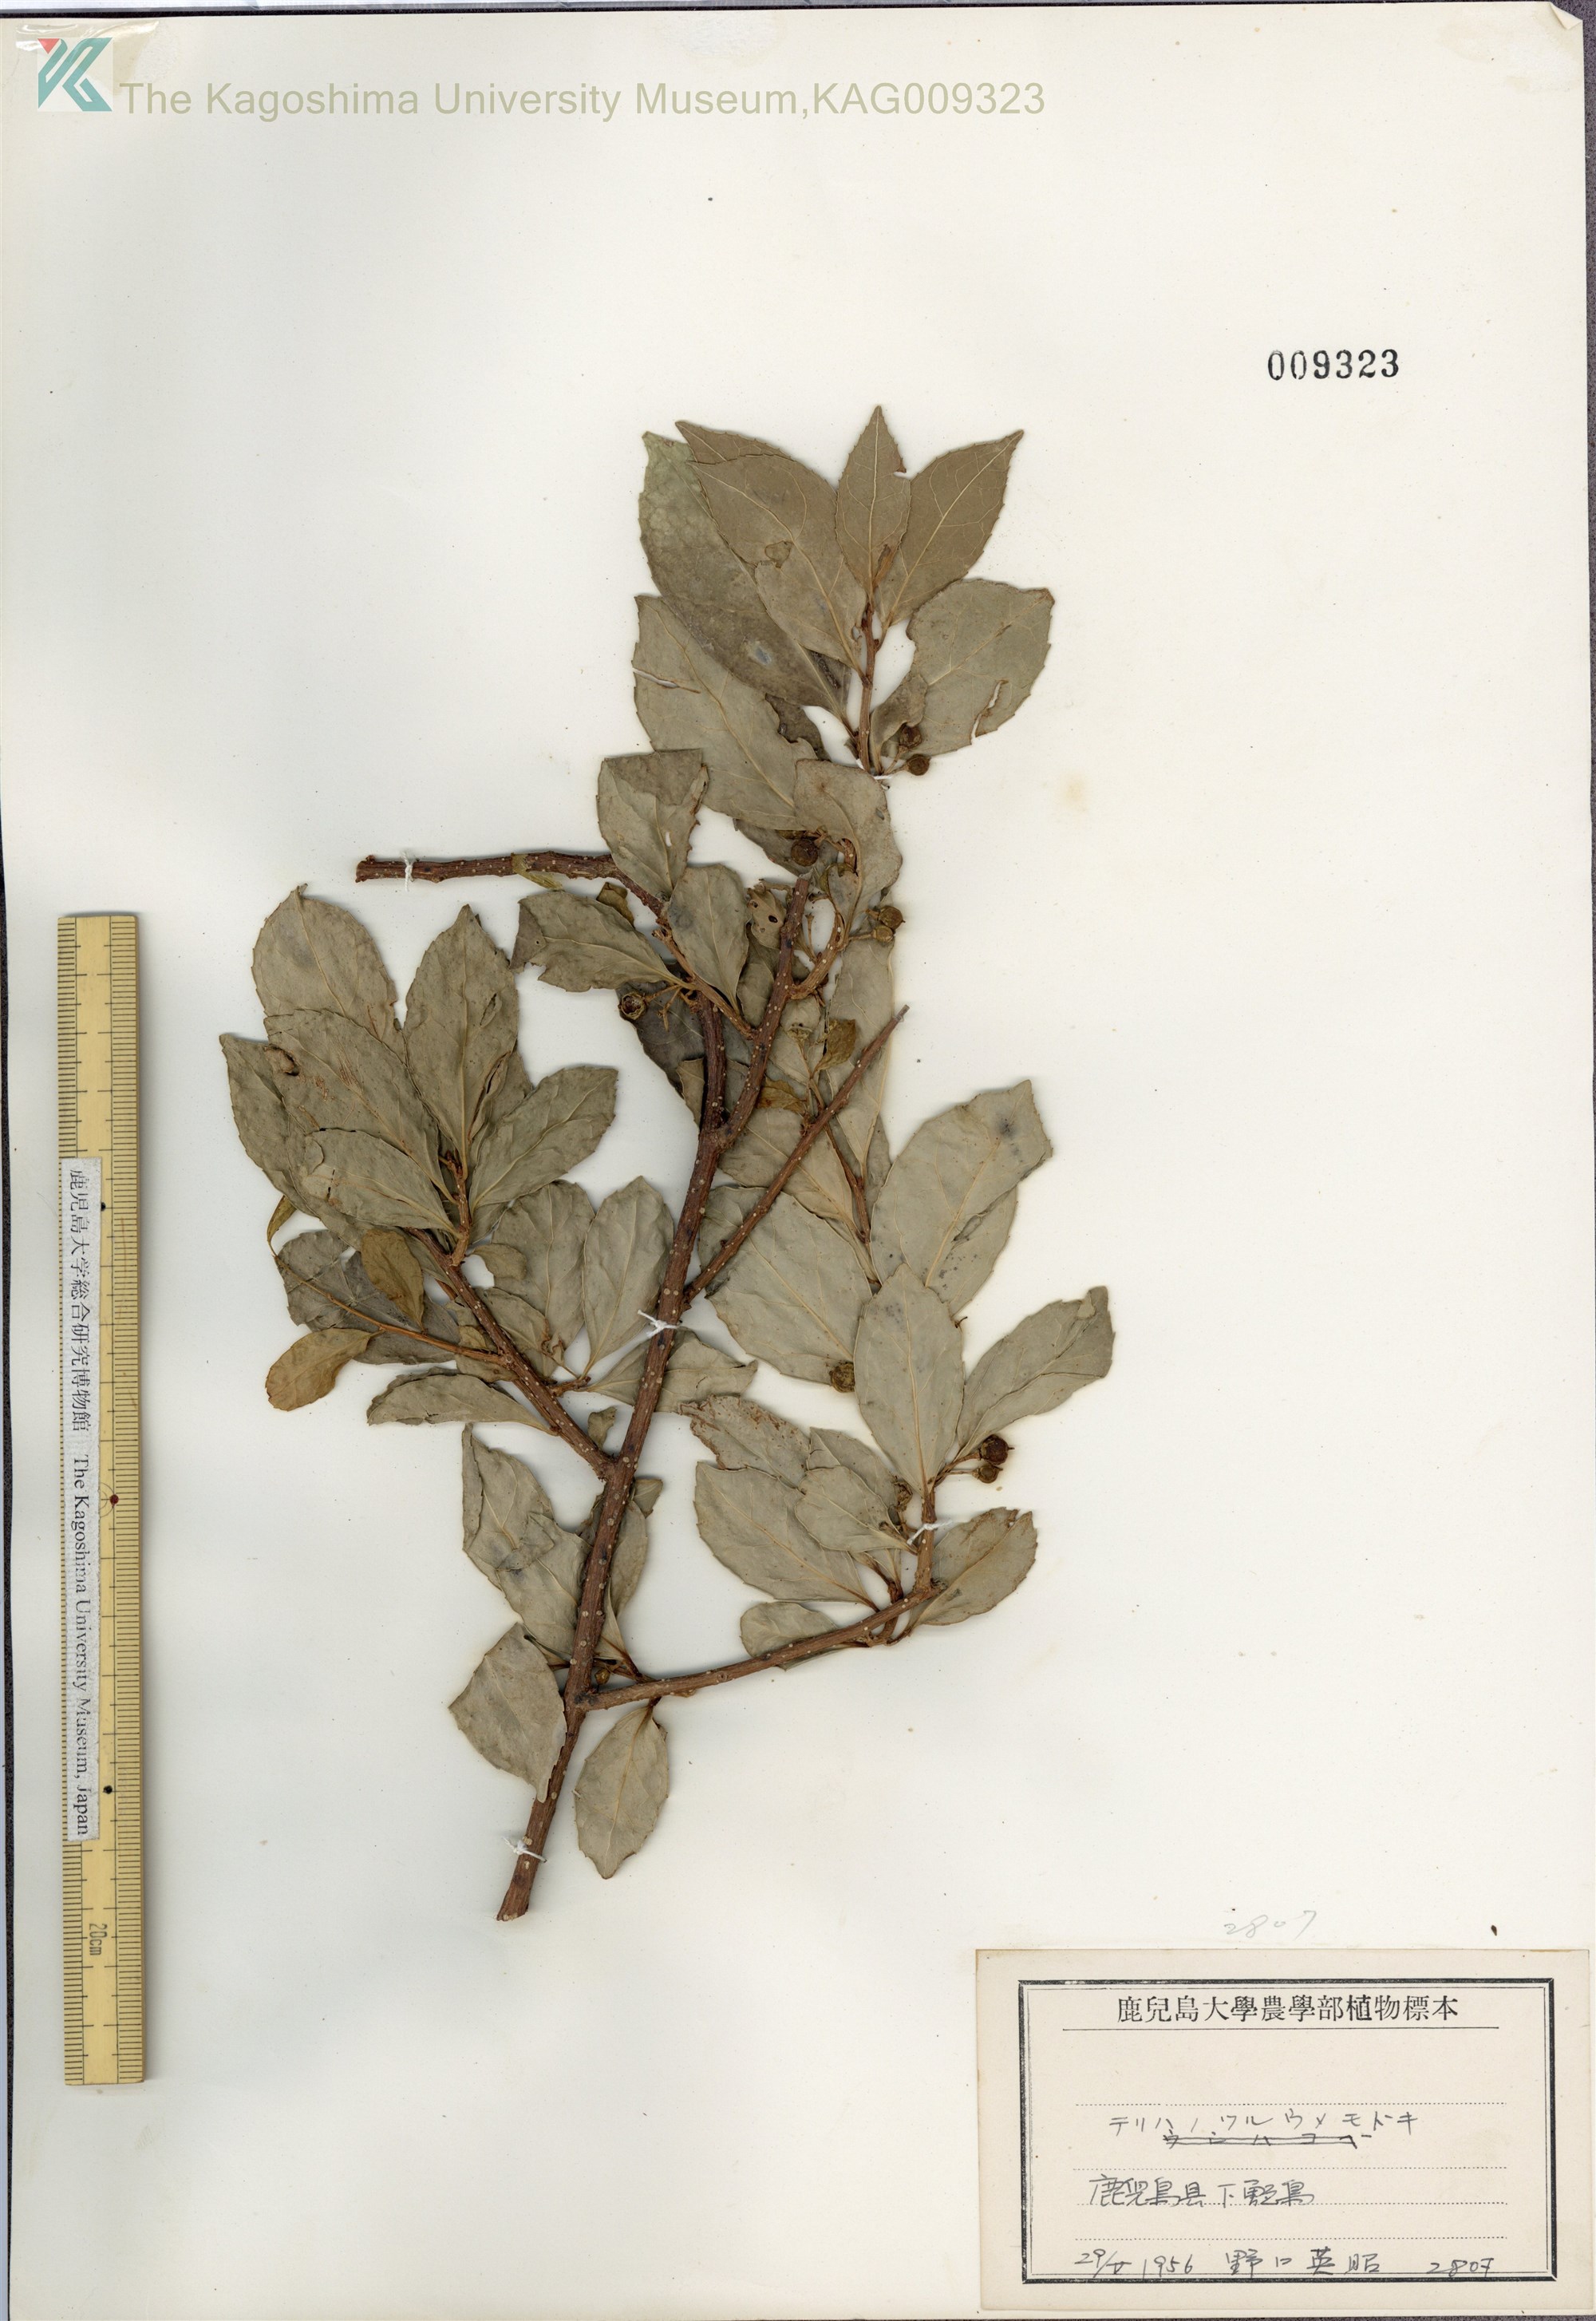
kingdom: Plantae
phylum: Tracheophyta
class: Magnoliopsida
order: Celastrales
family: Celastraceae
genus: Celastrus
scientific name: Celastrus punctatus
